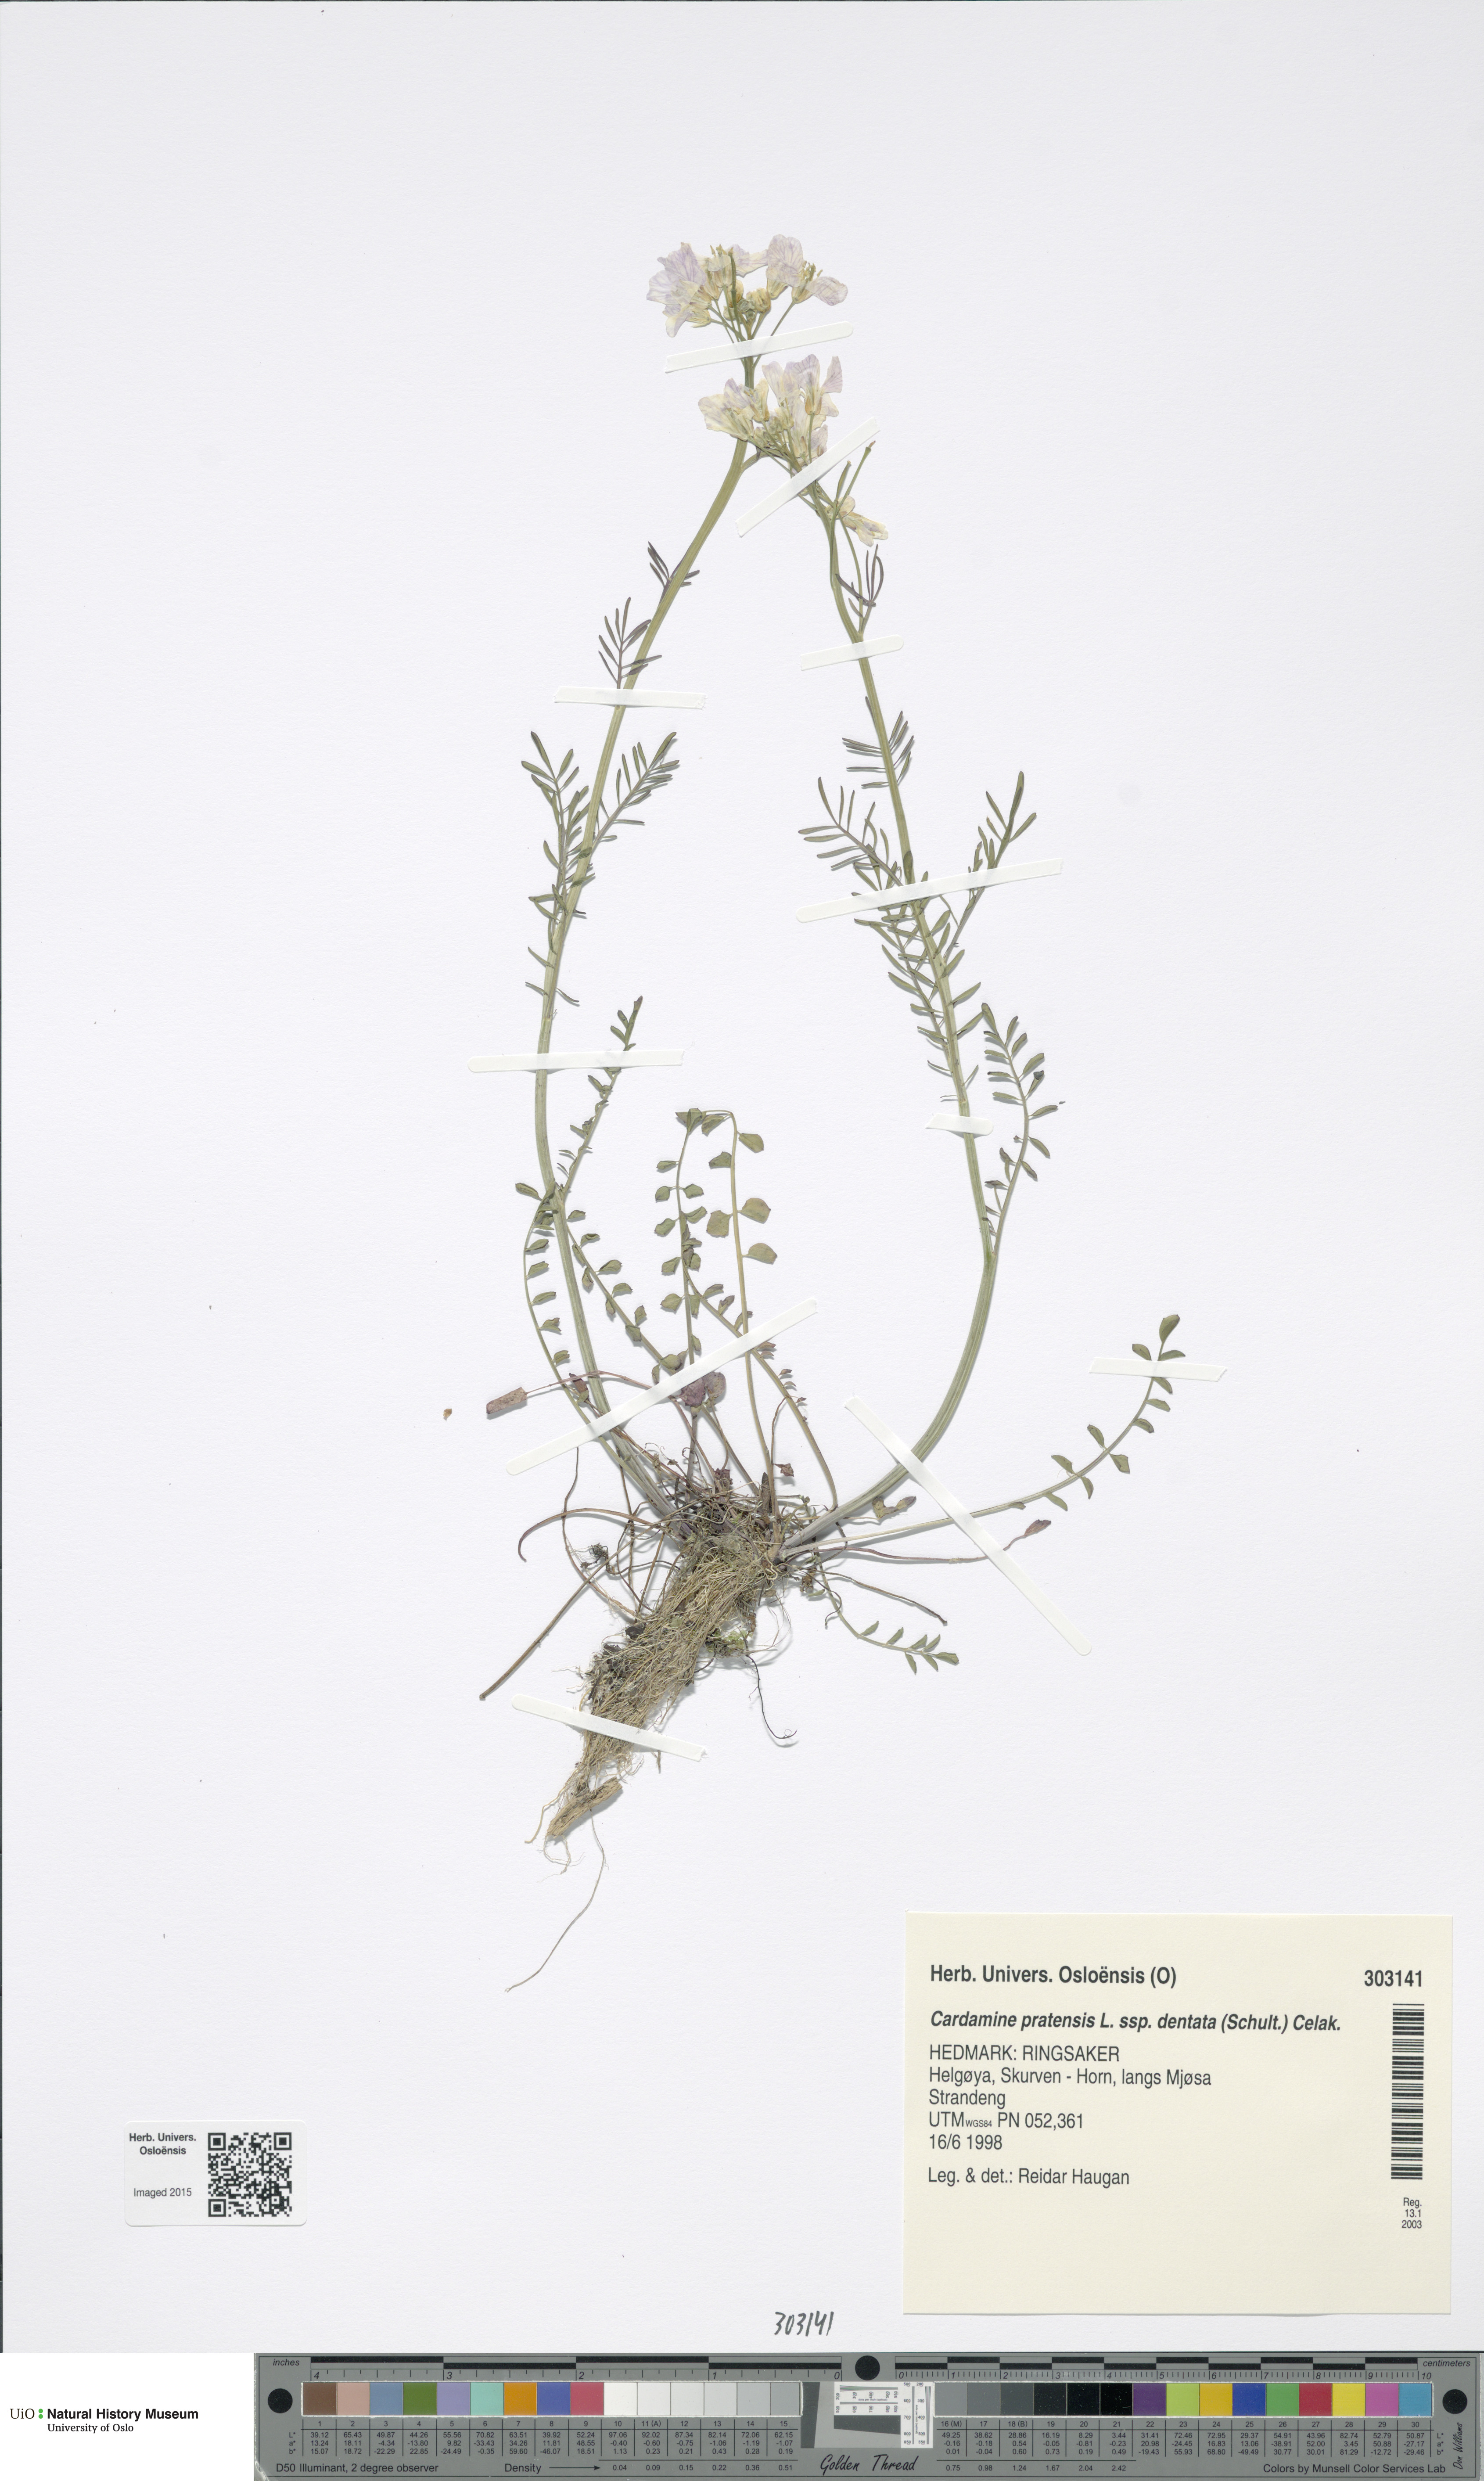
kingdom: Plantae
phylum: Tracheophyta
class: Magnoliopsida
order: Brassicales
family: Brassicaceae
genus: Cardamine
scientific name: Cardamine dentata
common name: Toothed bittercress
